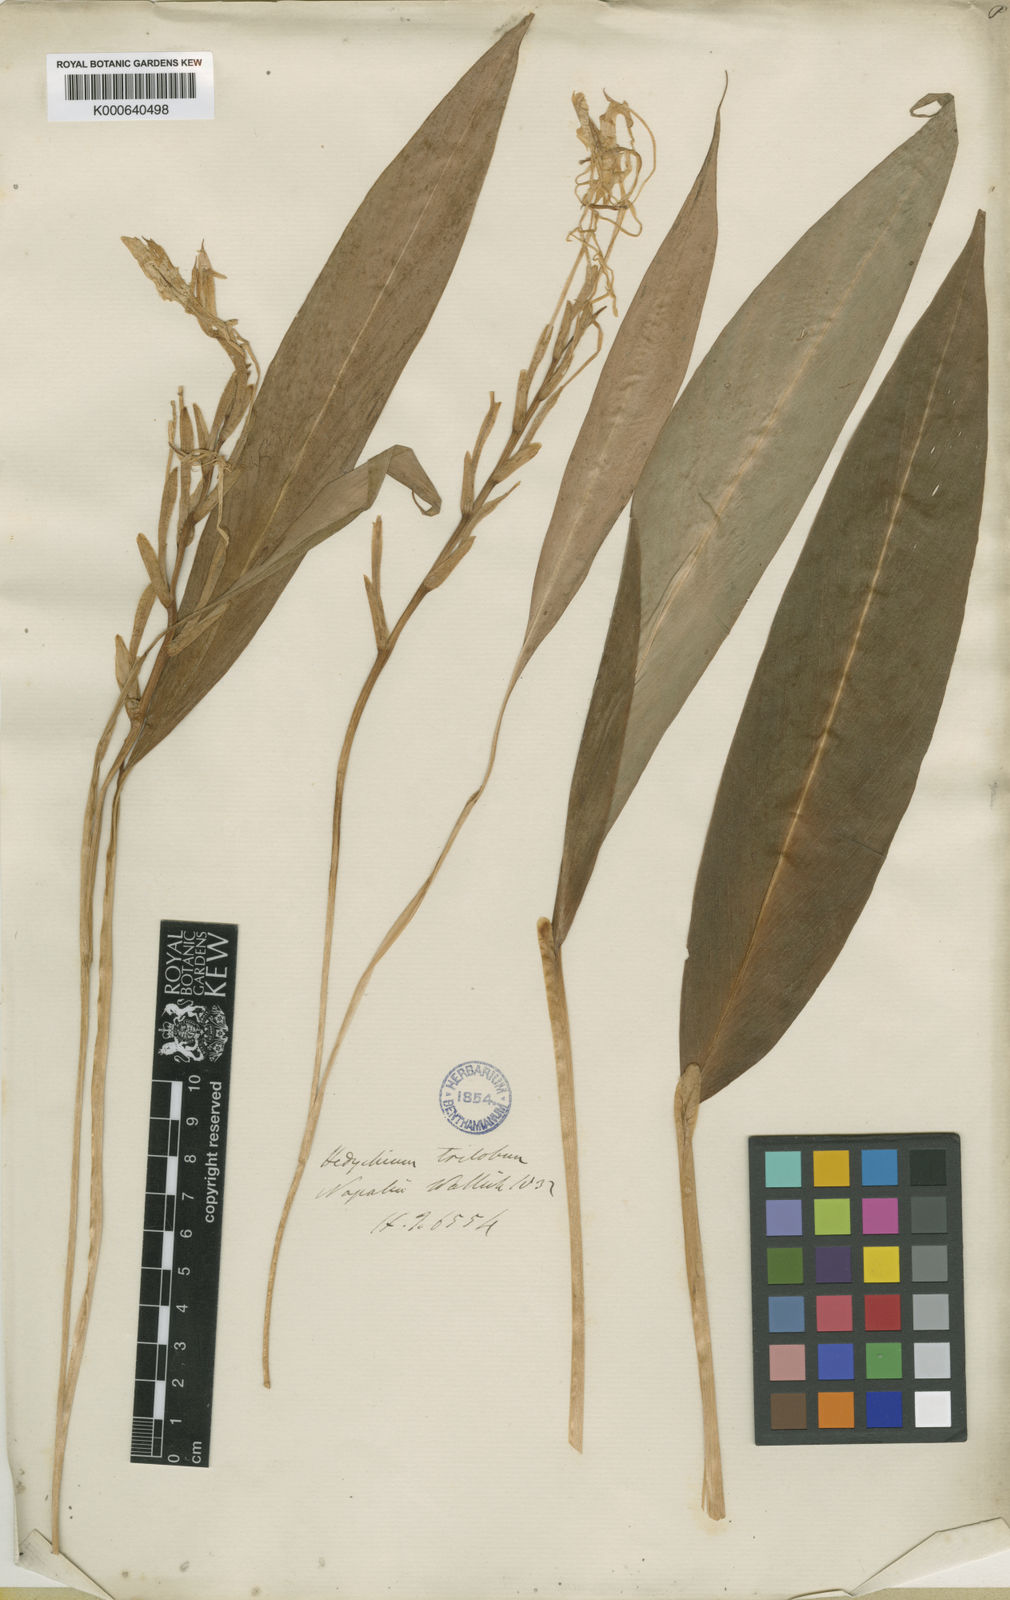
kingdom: Plantae
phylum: Tracheophyta
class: Liliopsida
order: Zingiberales
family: Zingiberaceae
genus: Hedychium
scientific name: Hedychium spicatum
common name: Spiked ginger-lily
